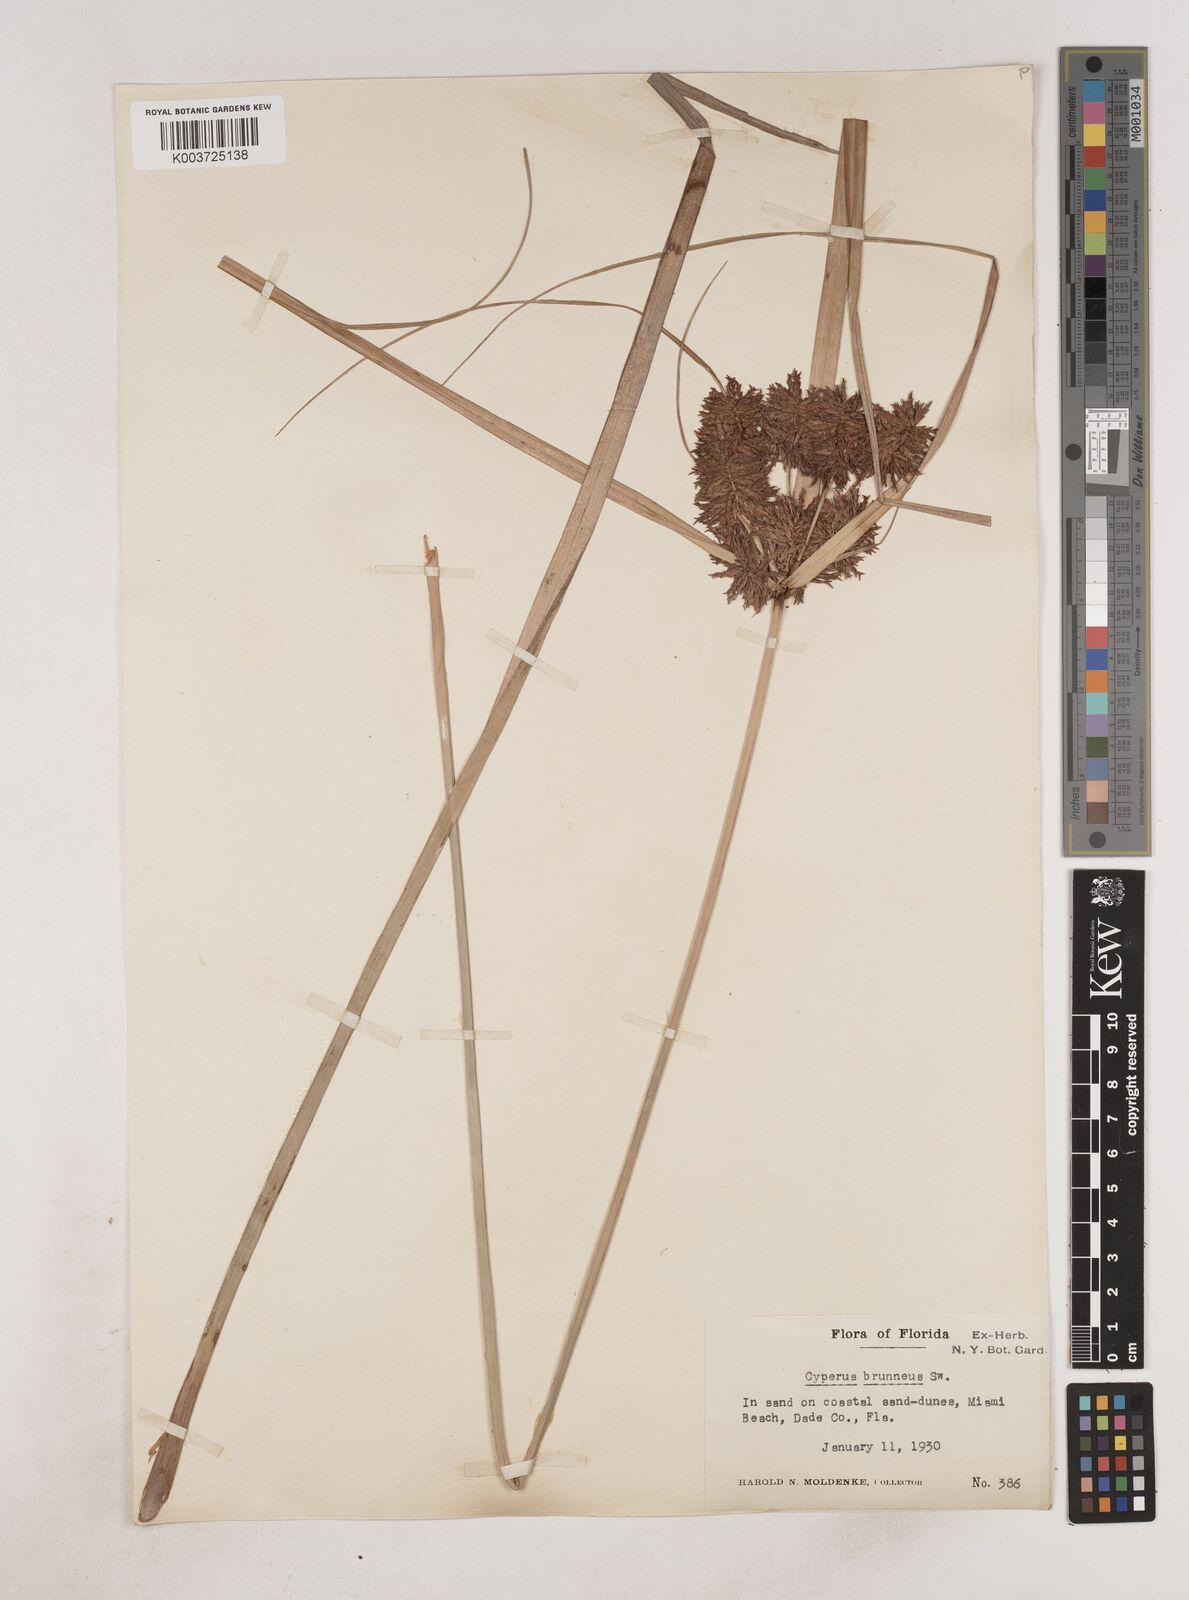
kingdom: Plantae
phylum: Tracheophyta
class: Liliopsida
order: Poales
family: Cyperaceae
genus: Cyperus
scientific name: Cyperus brunneus
